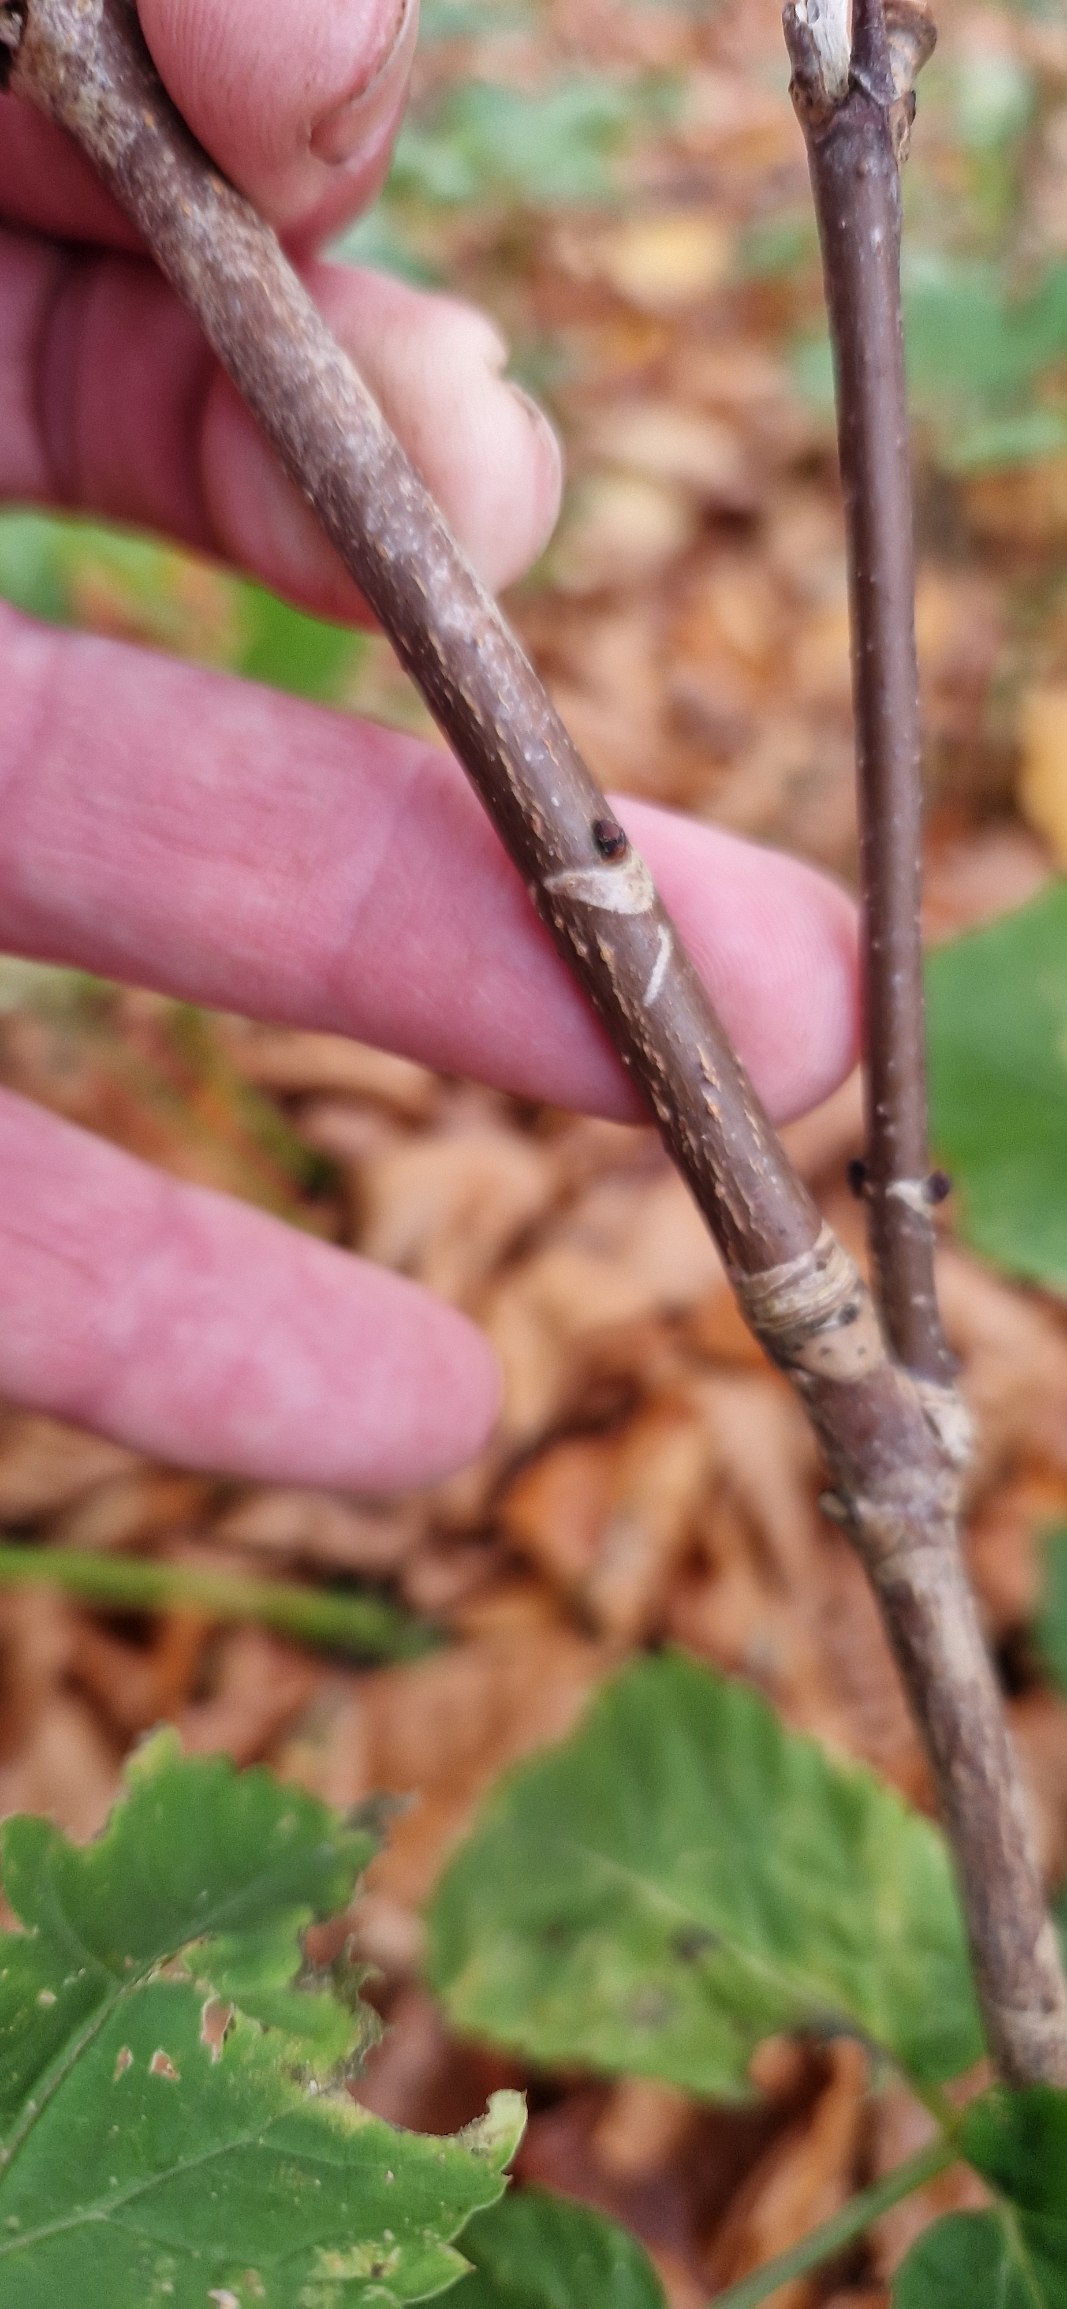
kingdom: Plantae
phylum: Tracheophyta
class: Magnoliopsida
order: Sapindales
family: Sapindaceae
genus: Aesculus
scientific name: Aesculus hippocastanum
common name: Hestekastanie
